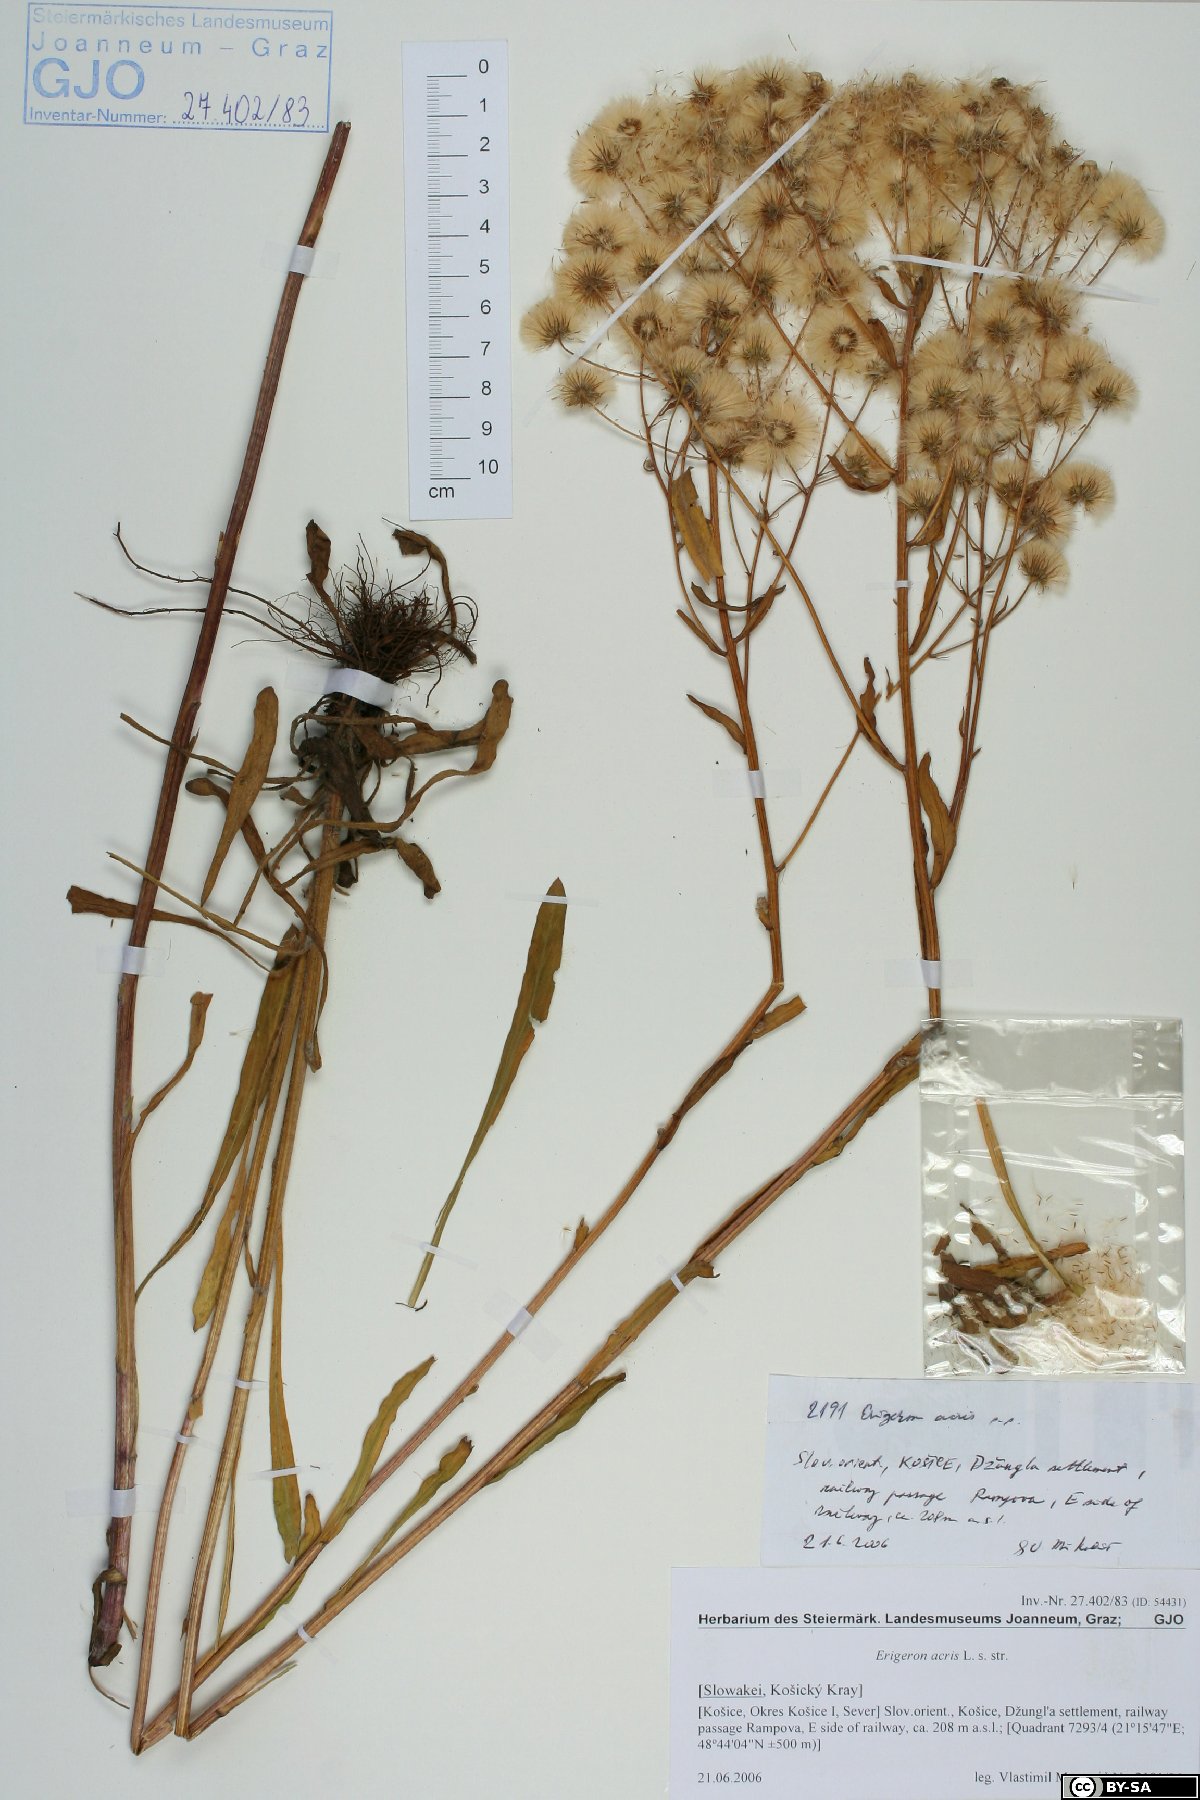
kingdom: Plantae
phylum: Tracheophyta
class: Magnoliopsida
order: Asterales
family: Asteraceae
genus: Erigeron
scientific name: Erigeron acris
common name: Blue fleabane
